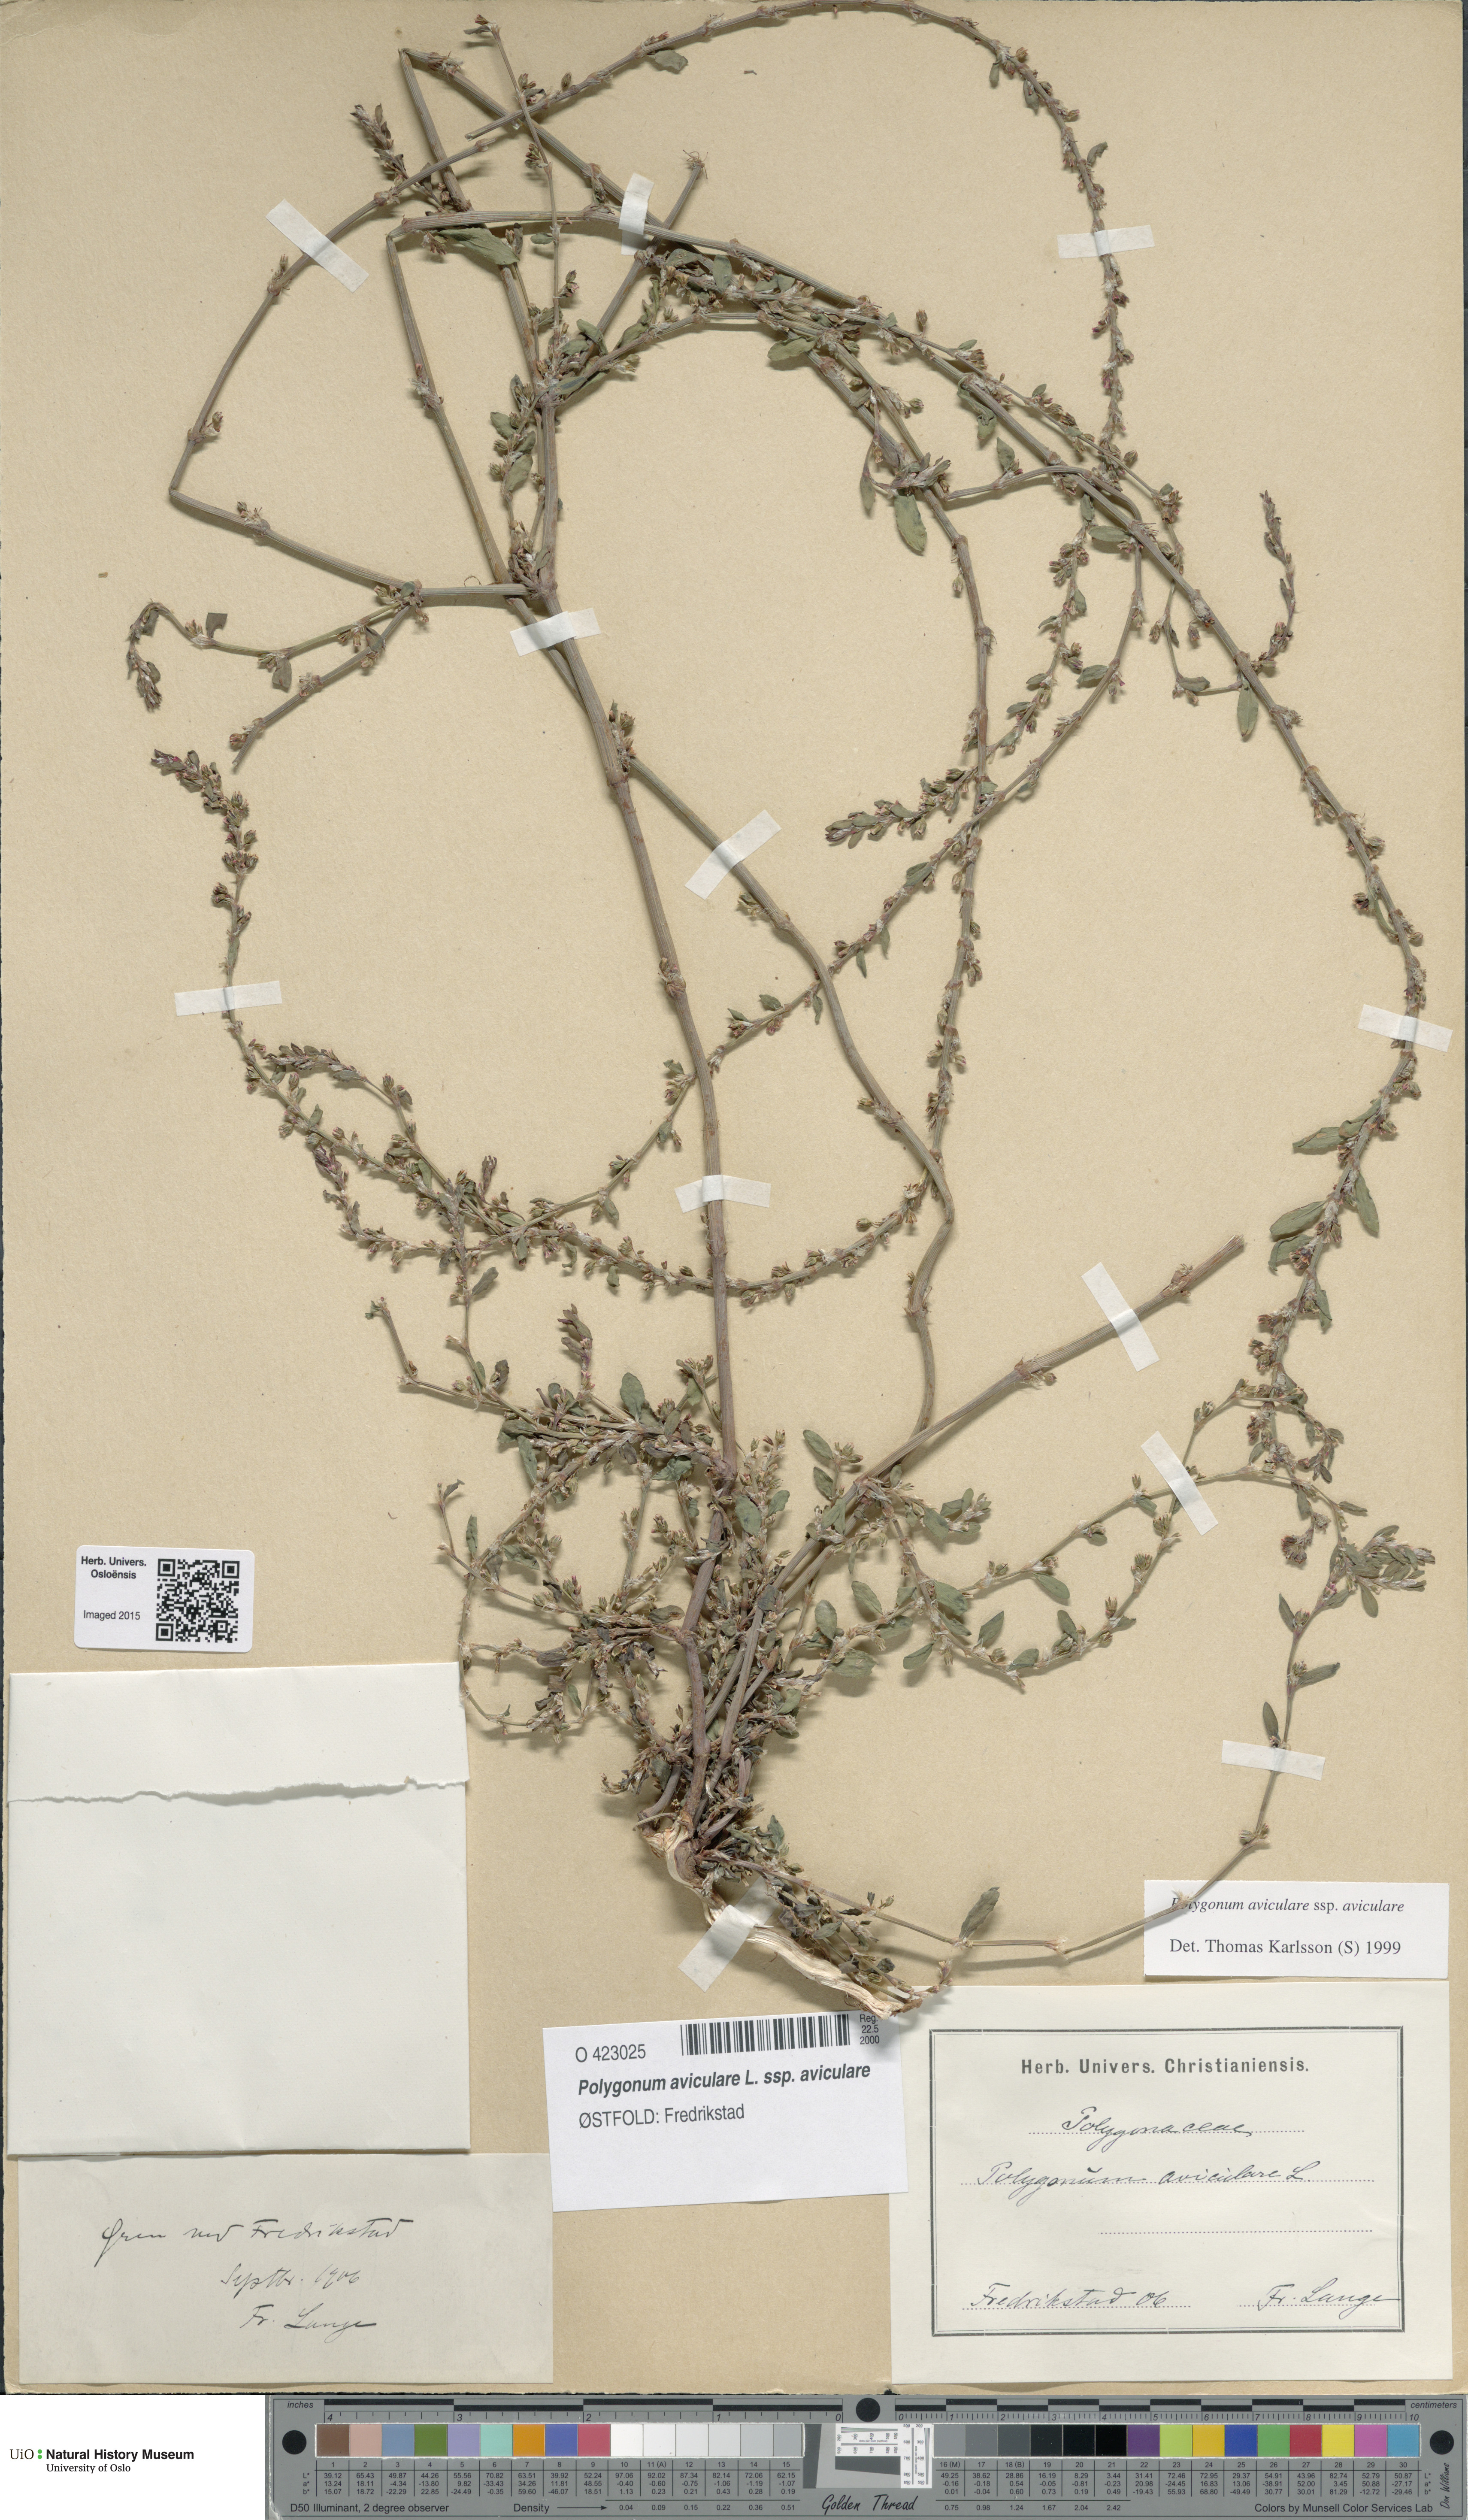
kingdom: Plantae
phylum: Tracheophyta
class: Magnoliopsida
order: Caryophyllales
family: Polygonaceae
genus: Polygonum
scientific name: Polygonum aviculare
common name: Prostrate knotweed
